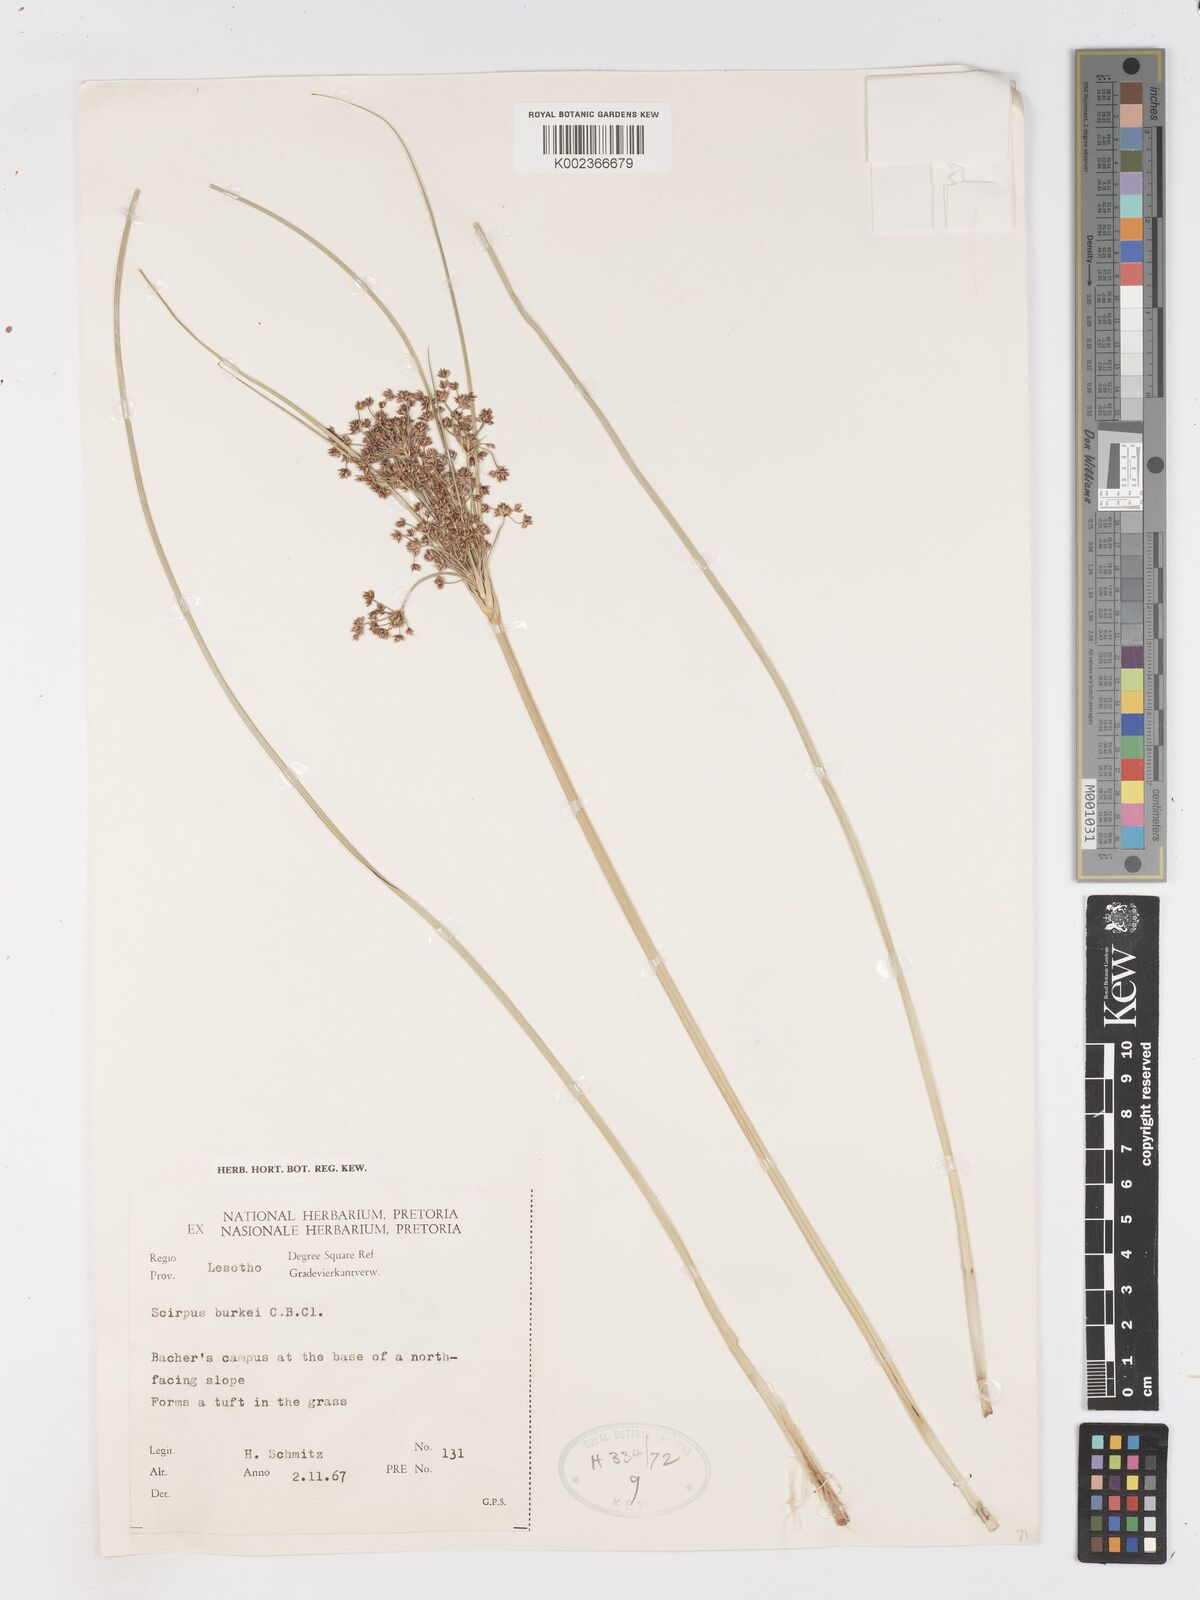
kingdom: Plantae
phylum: Tracheophyta
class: Liliopsida
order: Poales
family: Cyperaceae
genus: Scirpoides
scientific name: Scirpoides burkei
